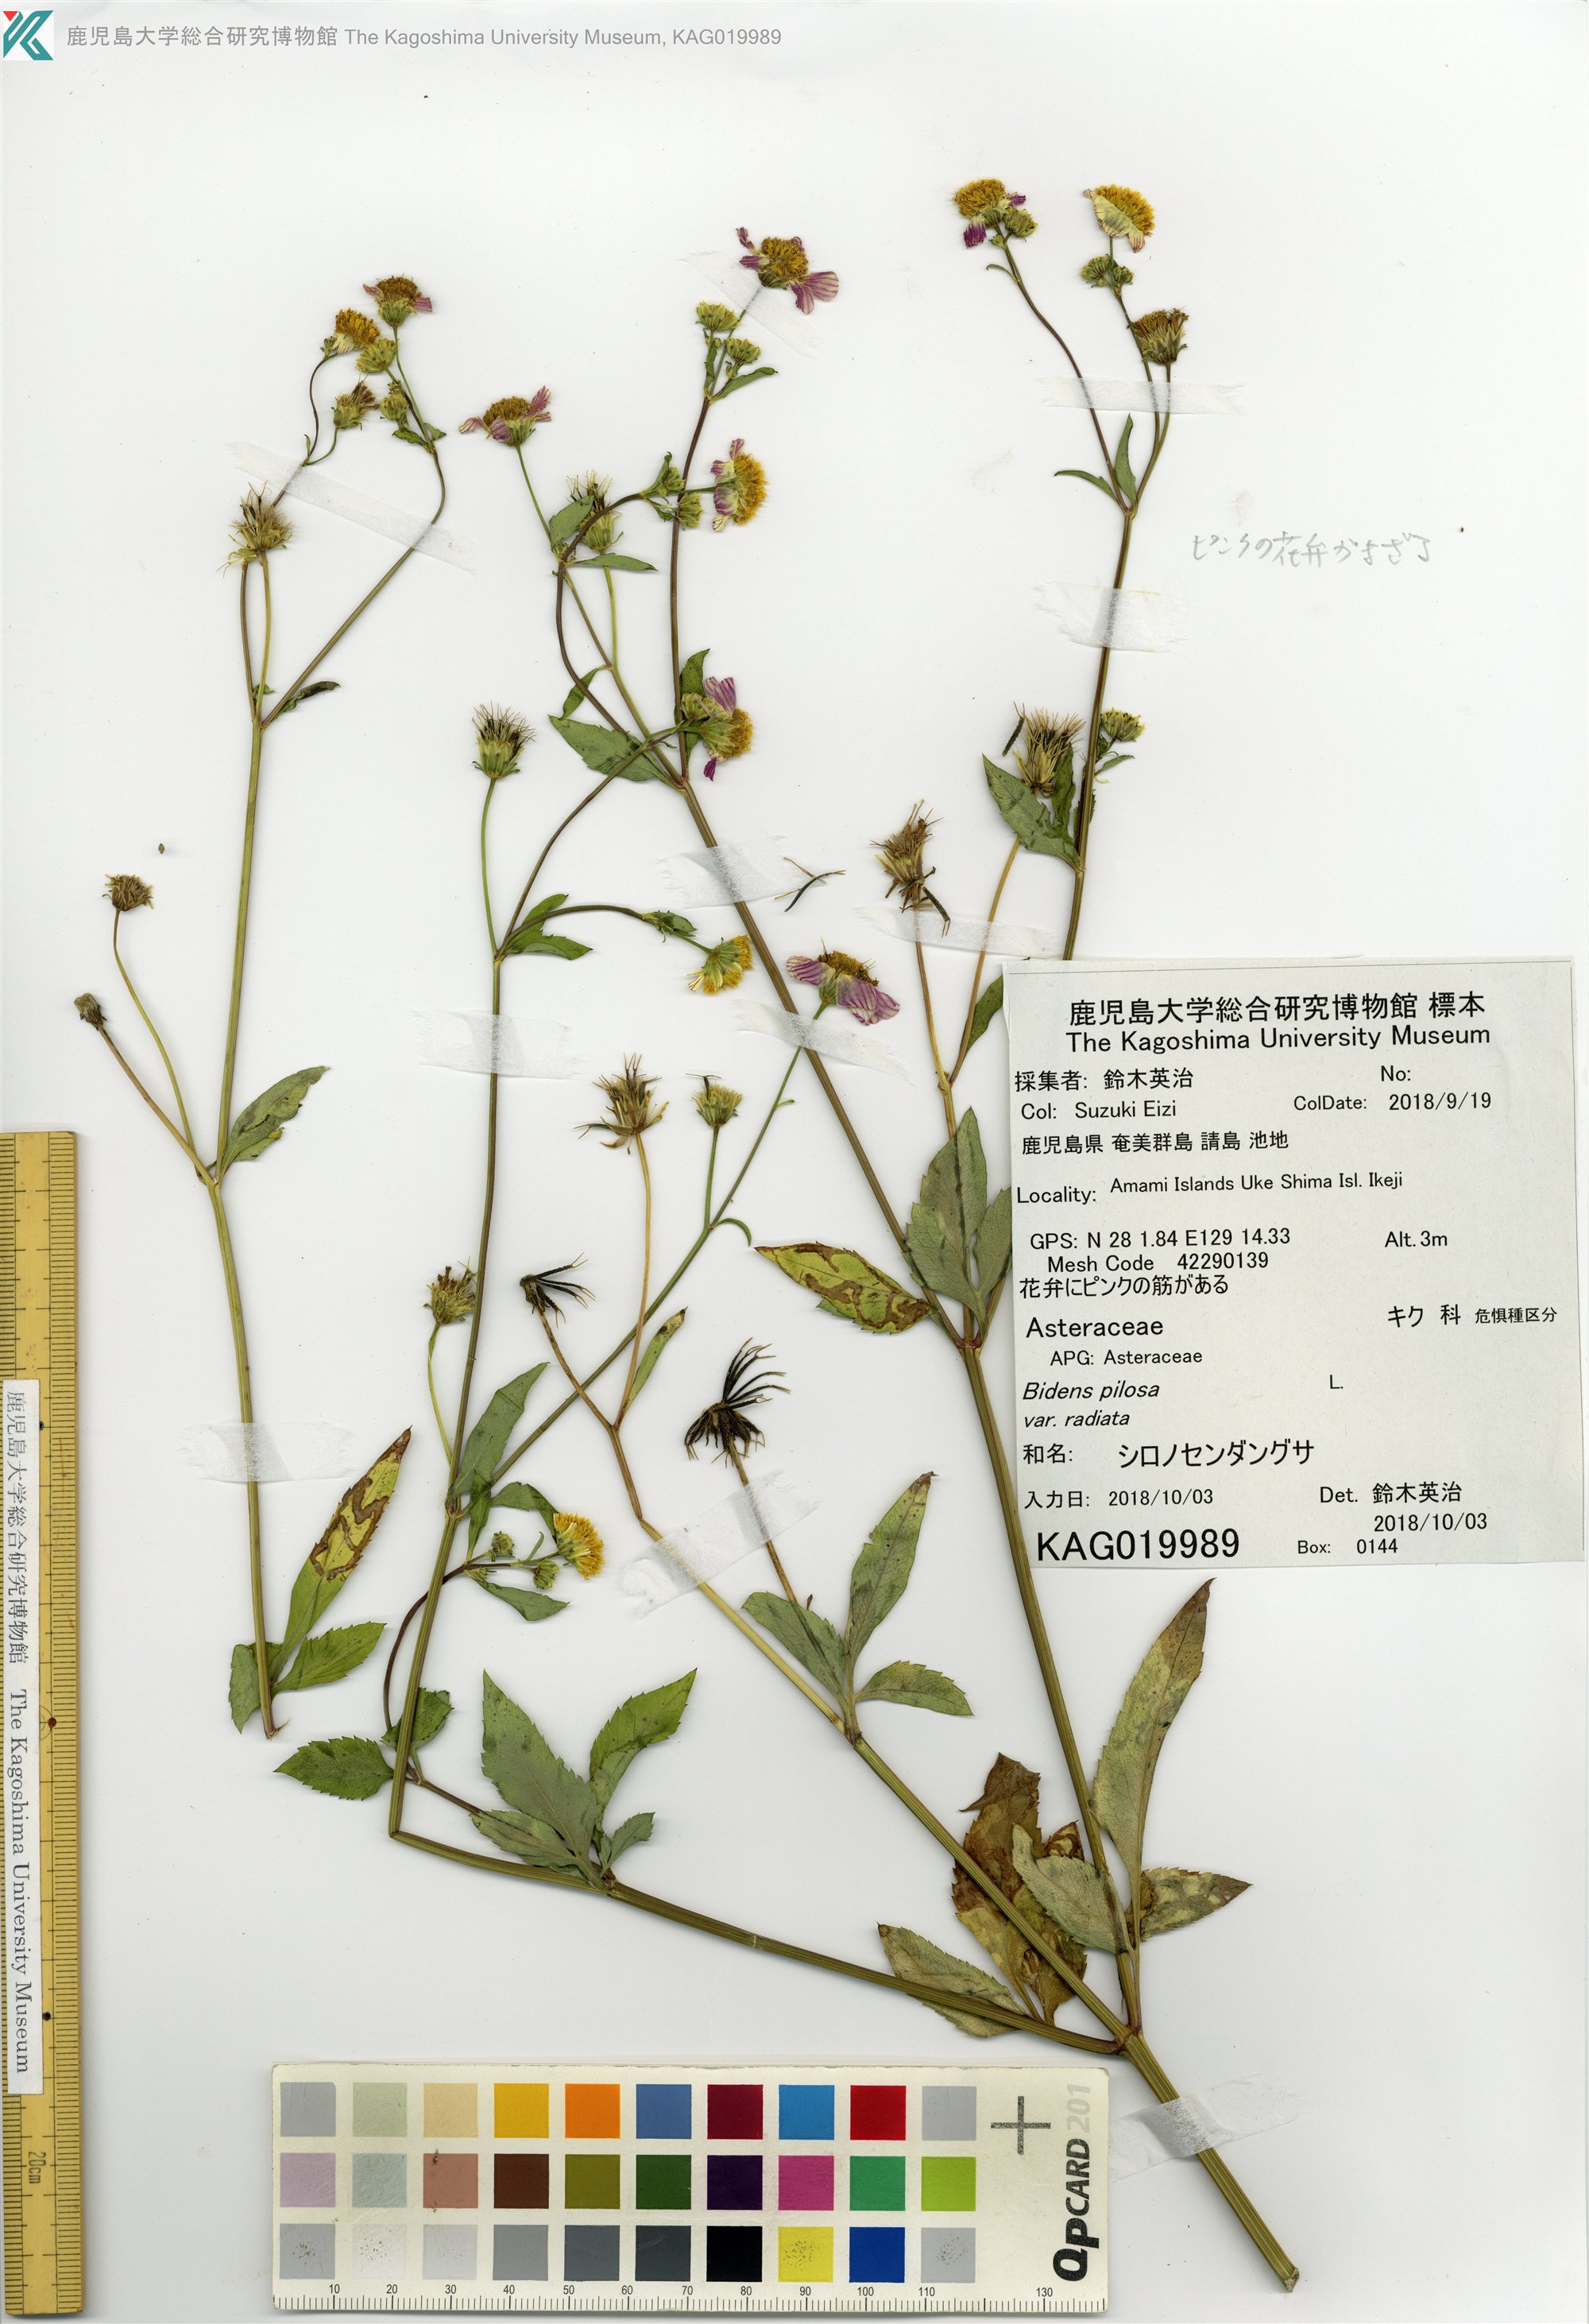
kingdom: Plantae
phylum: Tracheophyta
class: Magnoliopsida
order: Asterales
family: Asteraceae
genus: Bidens
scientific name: Bidens pilosa
